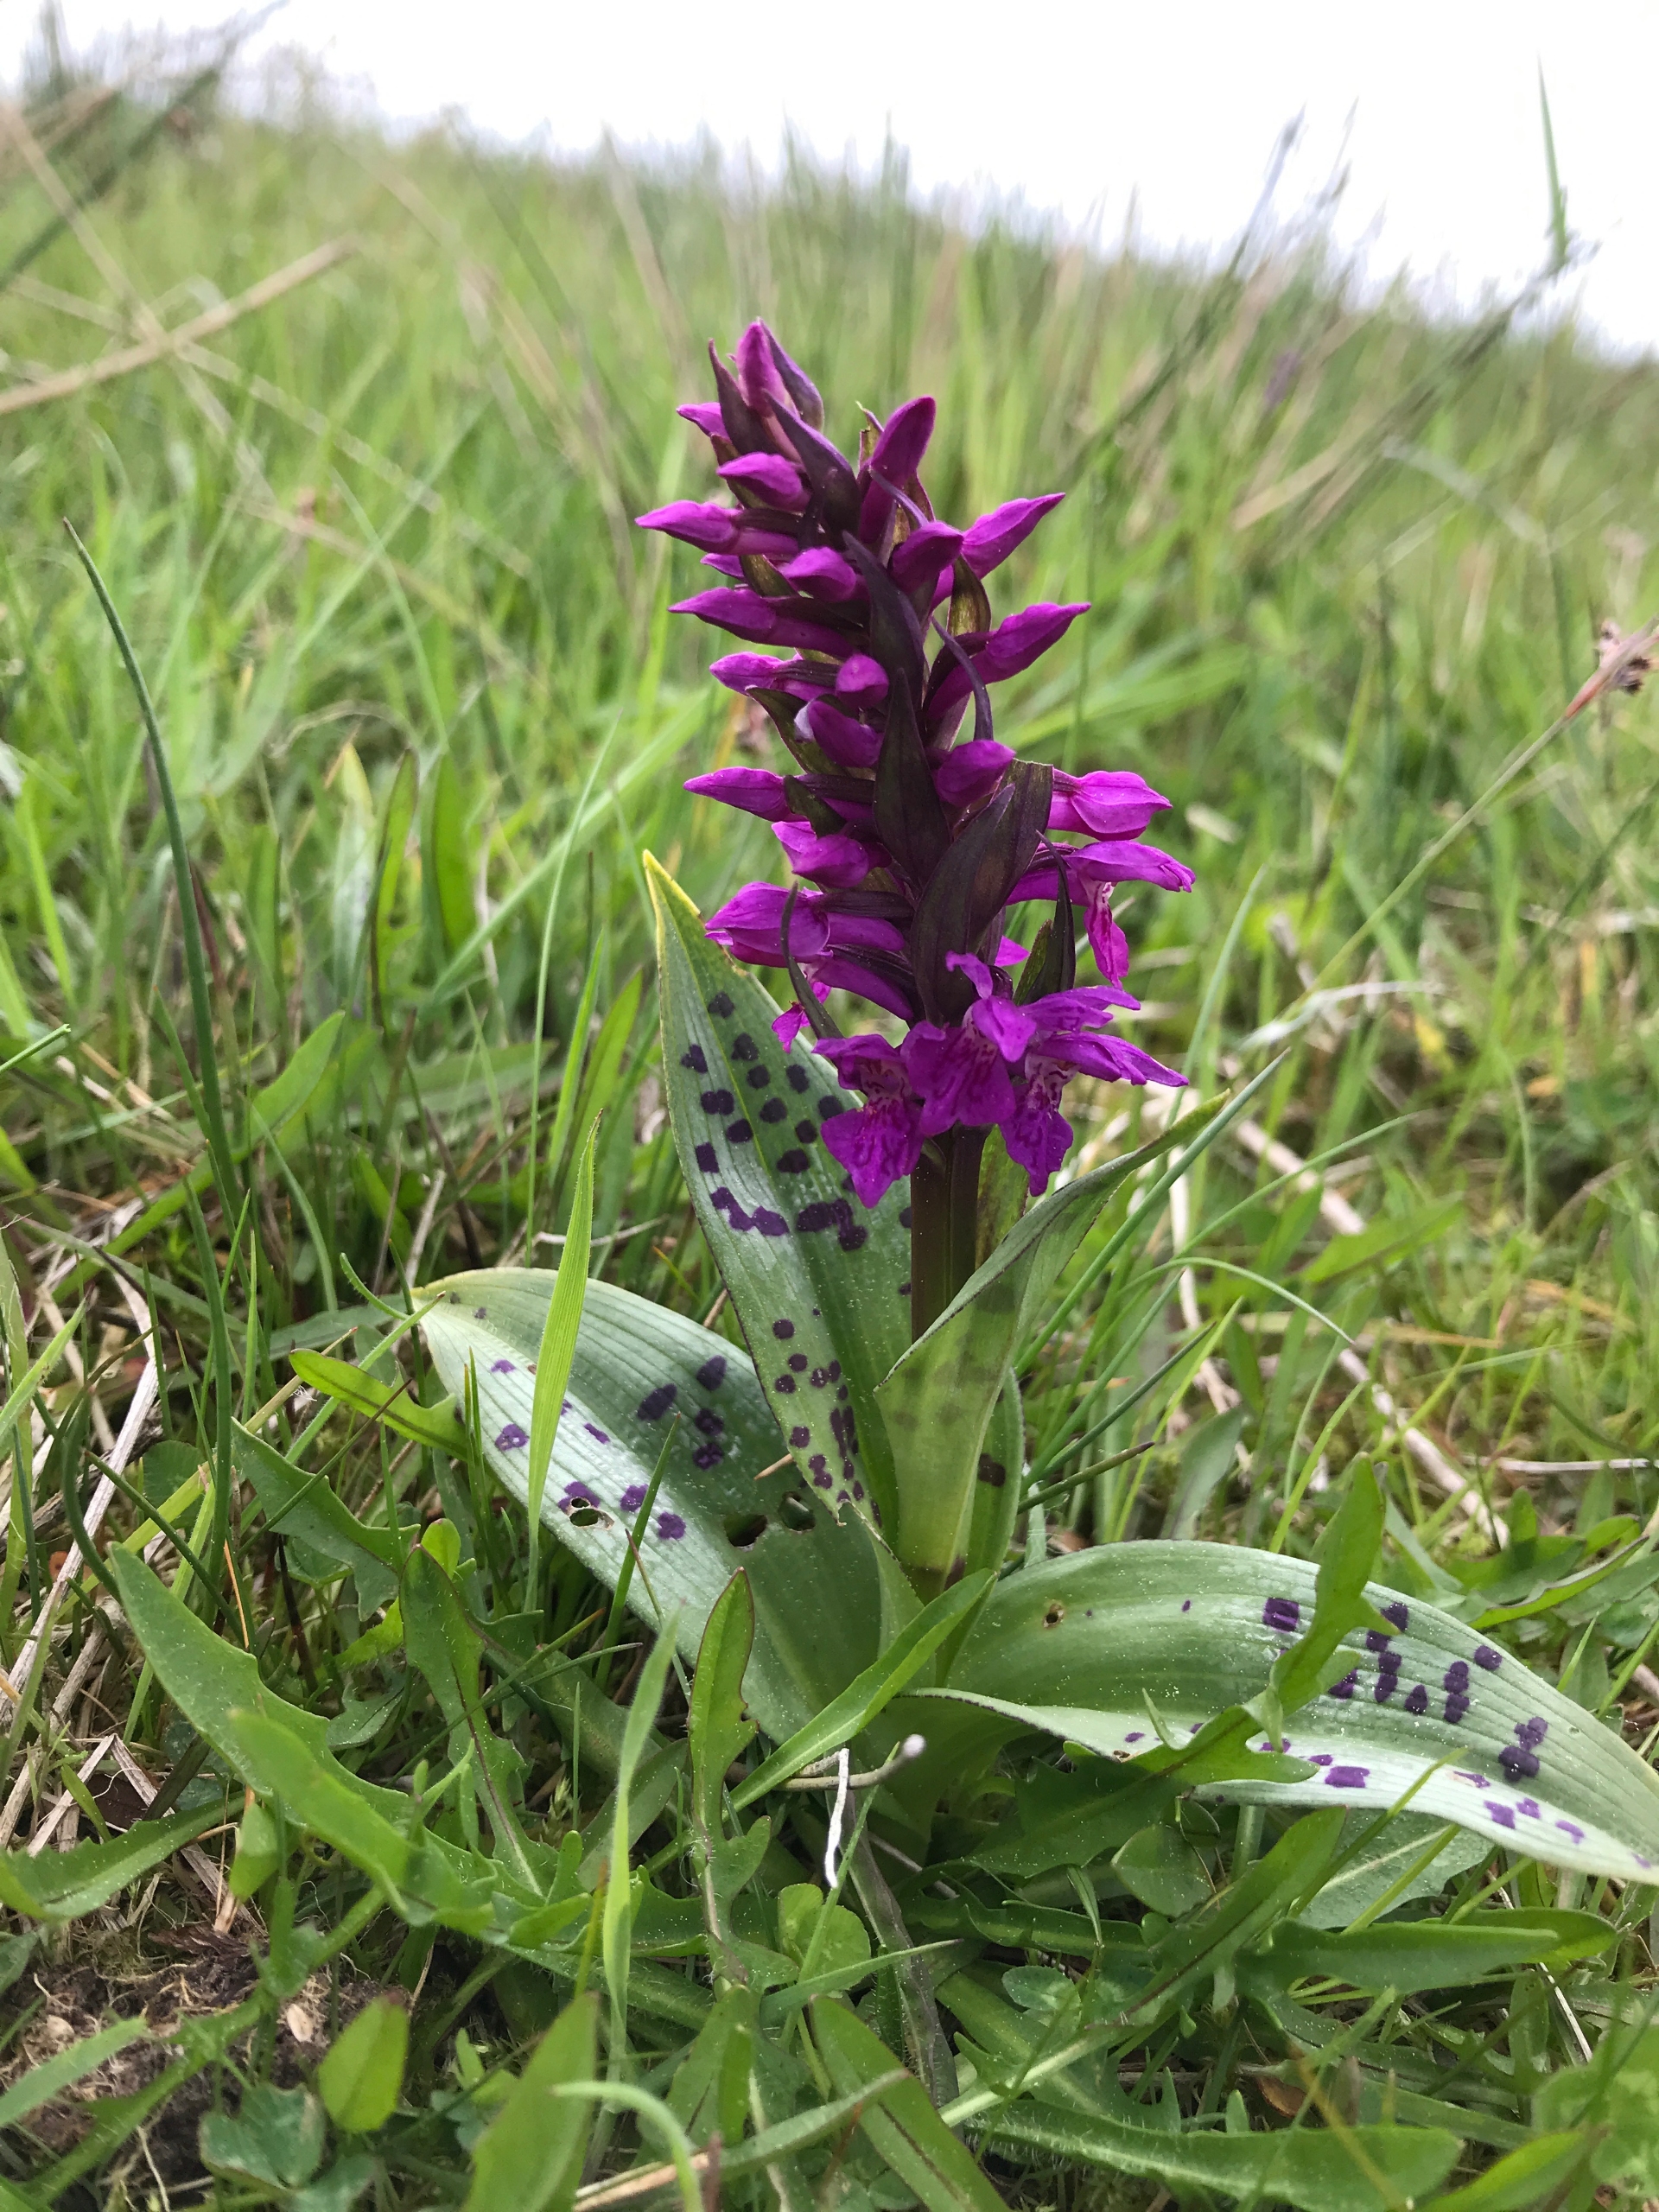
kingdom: Plantae
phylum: Tracheophyta
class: Liliopsida
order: Asparagales
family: Orchidaceae
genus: Dactylorhiza
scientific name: Dactylorhiza majalis
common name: Maj-gøgeurt
